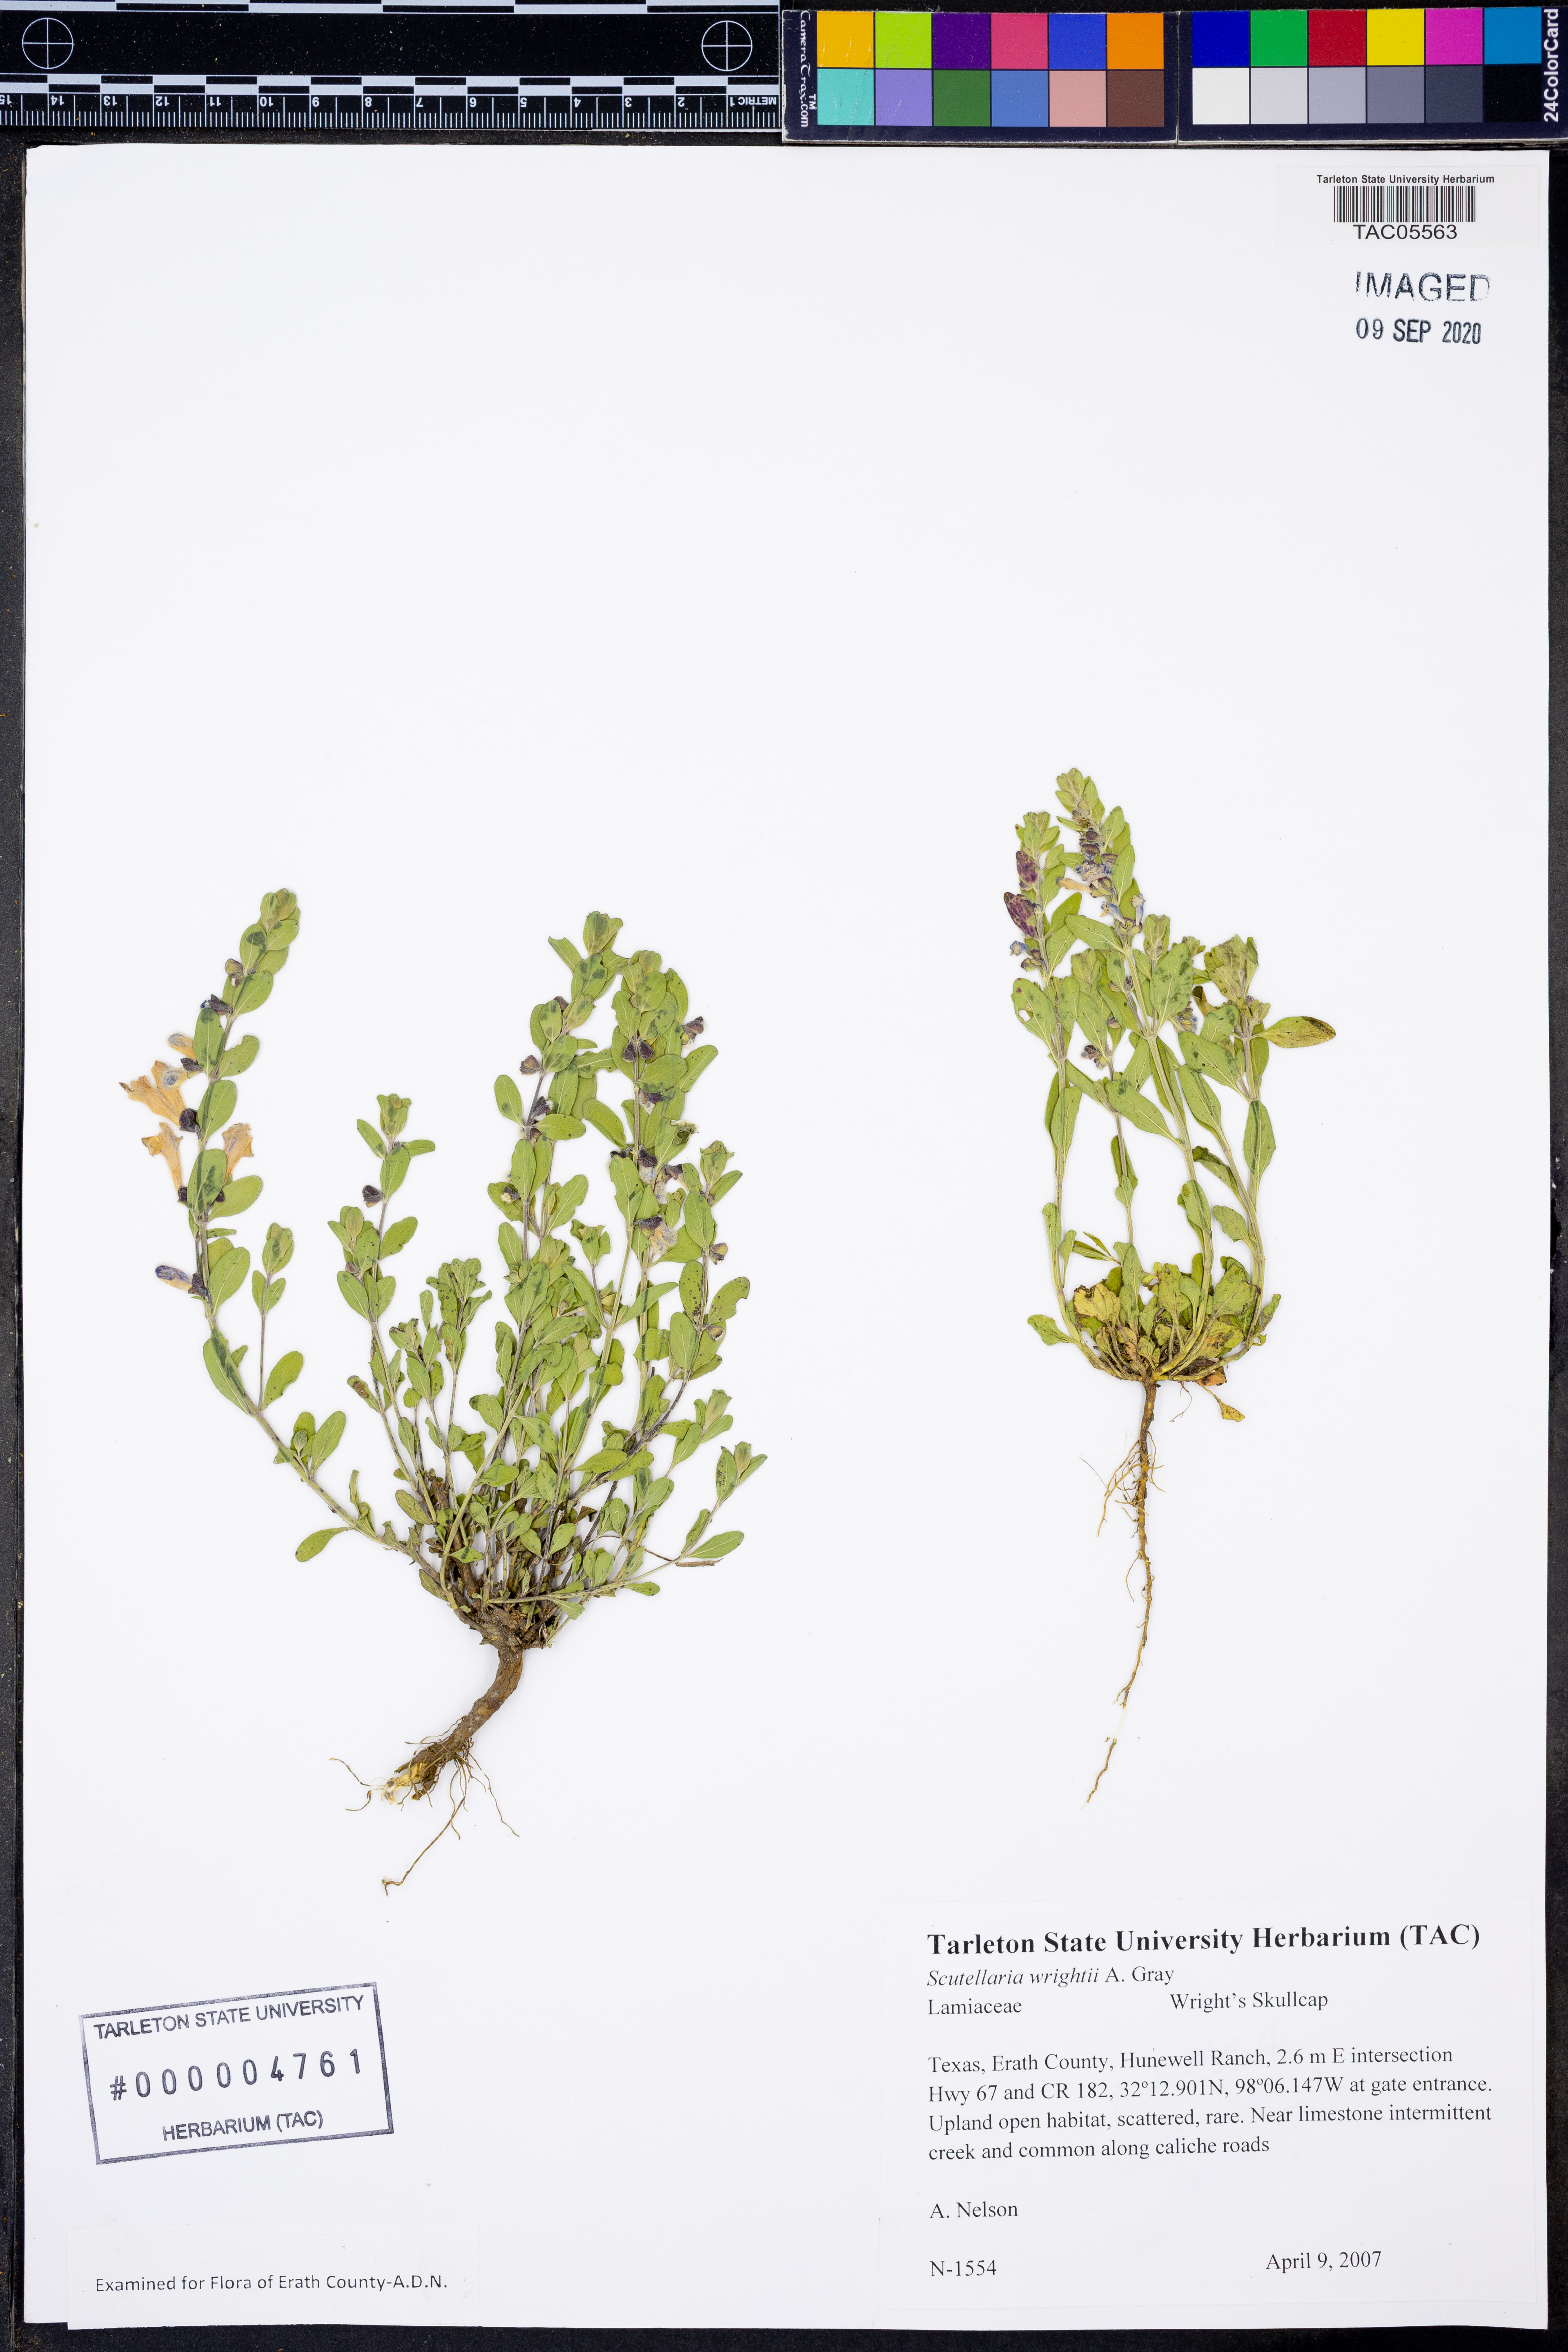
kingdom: Plantae
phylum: Tracheophyta
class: Magnoliopsida
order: Lamiales
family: Lamiaceae
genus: Scutellaria
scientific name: Scutellaria wrightii
